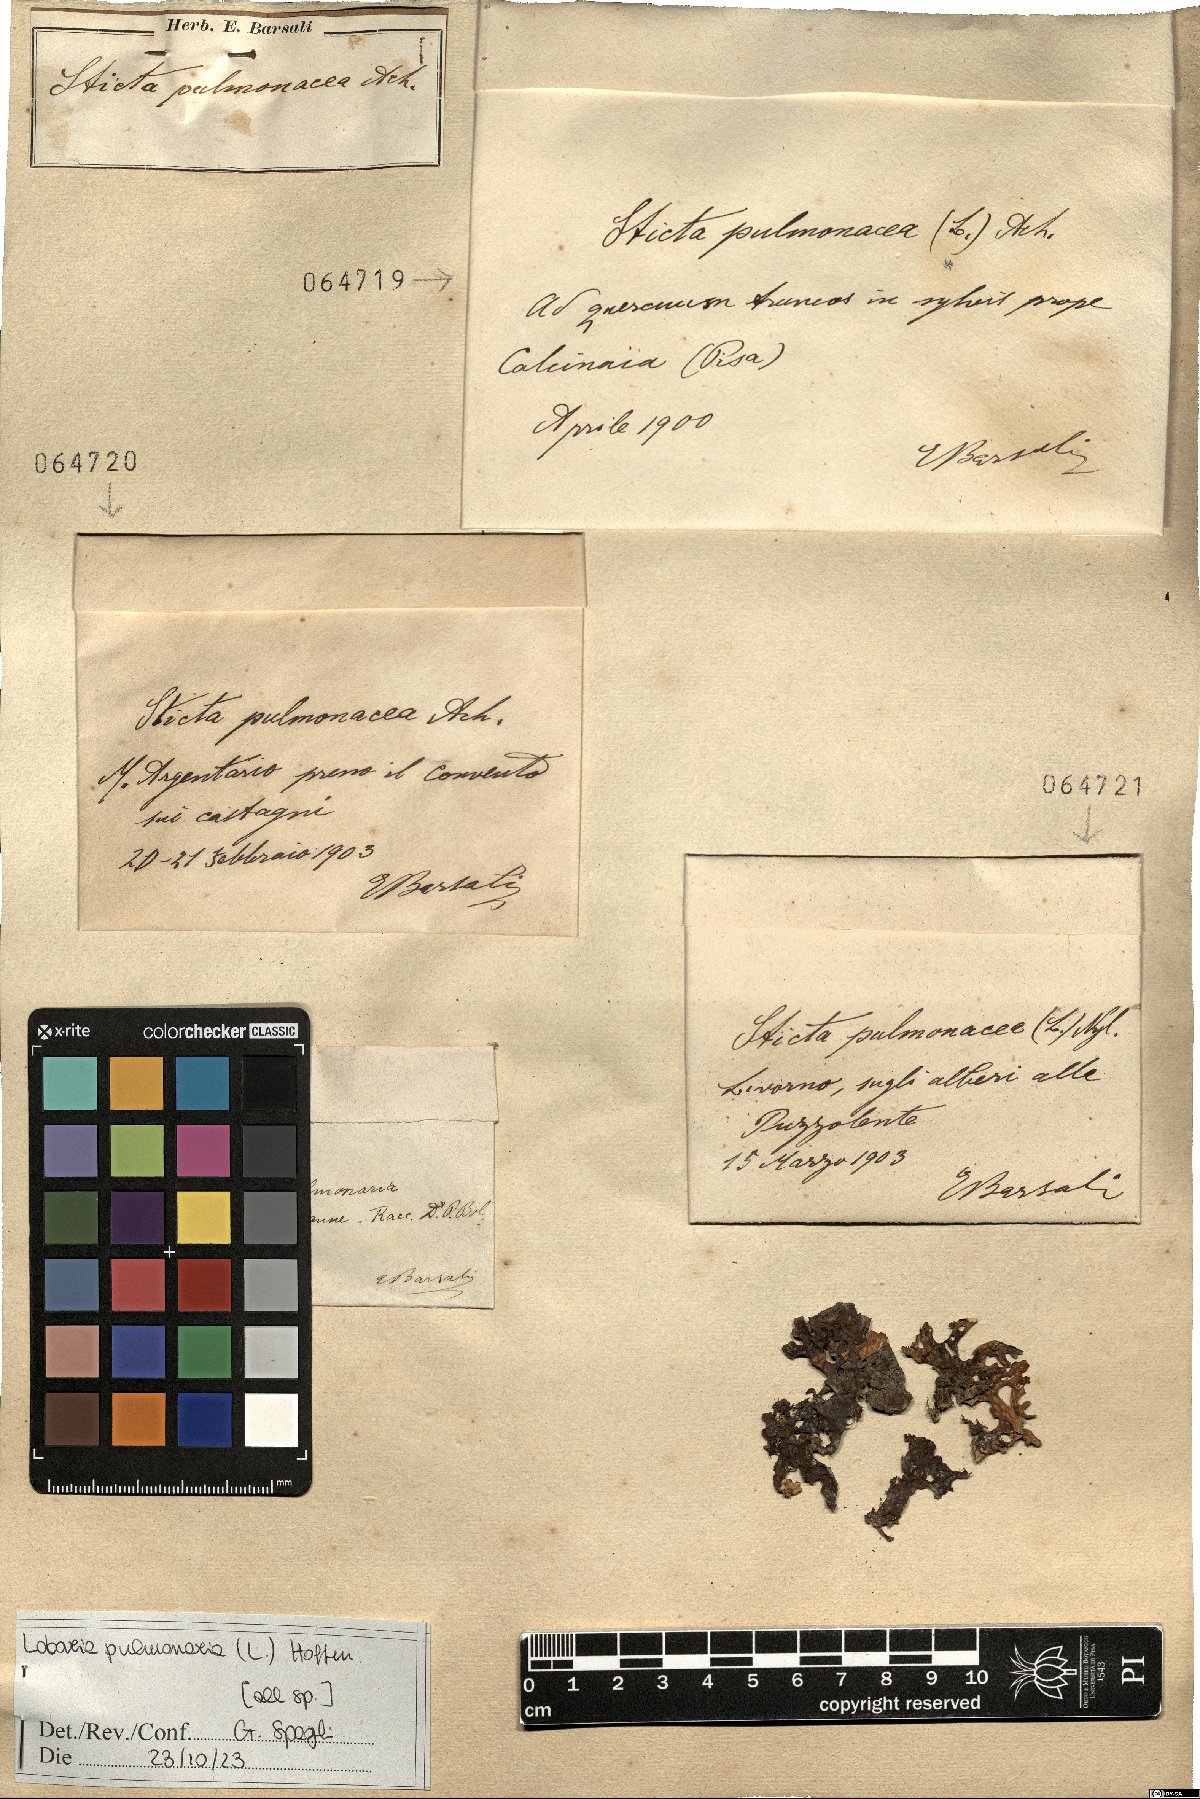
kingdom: Fungi
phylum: Ascomycota
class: Lecanoromycetes
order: Peltigerales
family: Lobariaceae
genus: Lobaria
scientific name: Lobaria pulmonaria
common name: Lungwort
